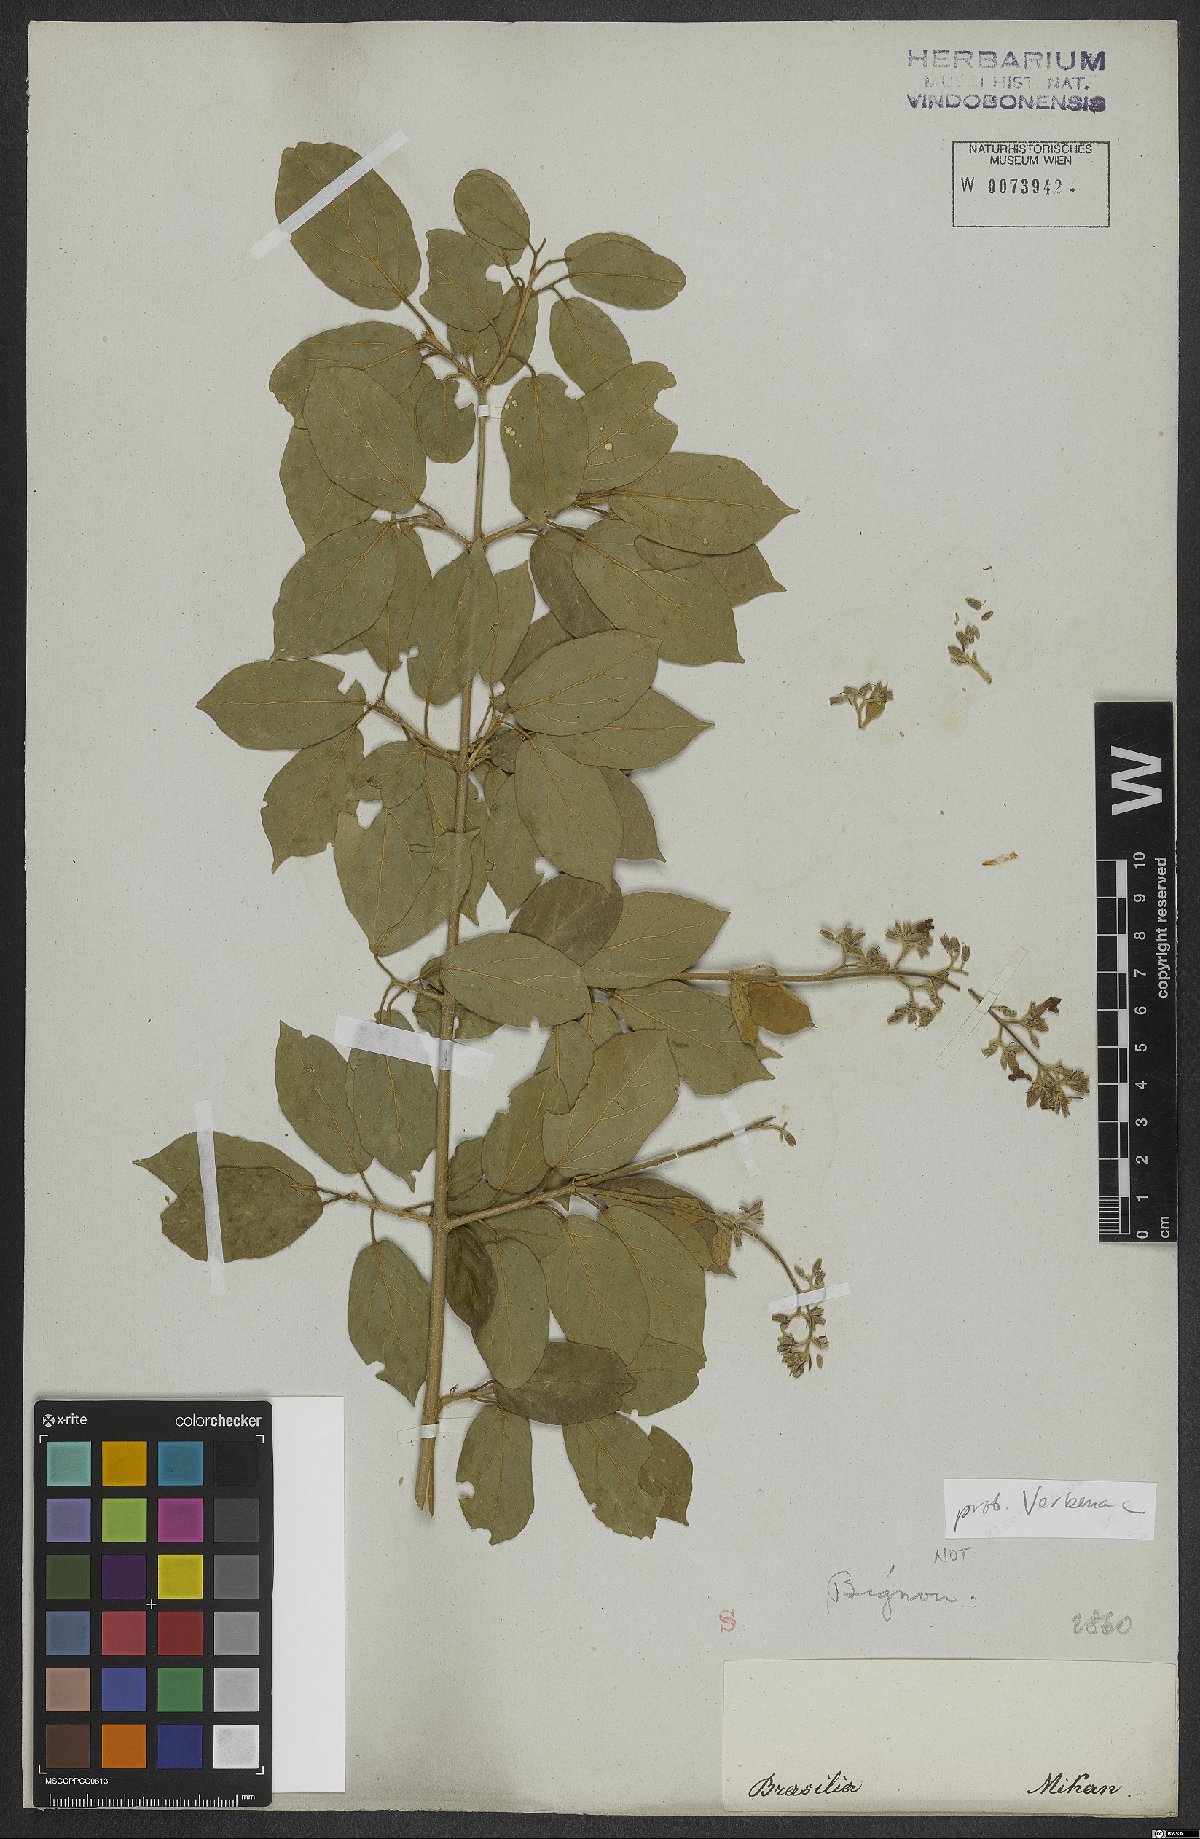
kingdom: Plantae
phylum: Tracheophyta
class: Magnoliopsida
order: Lamiales
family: Verbenaceae
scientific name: Verbenaceae
